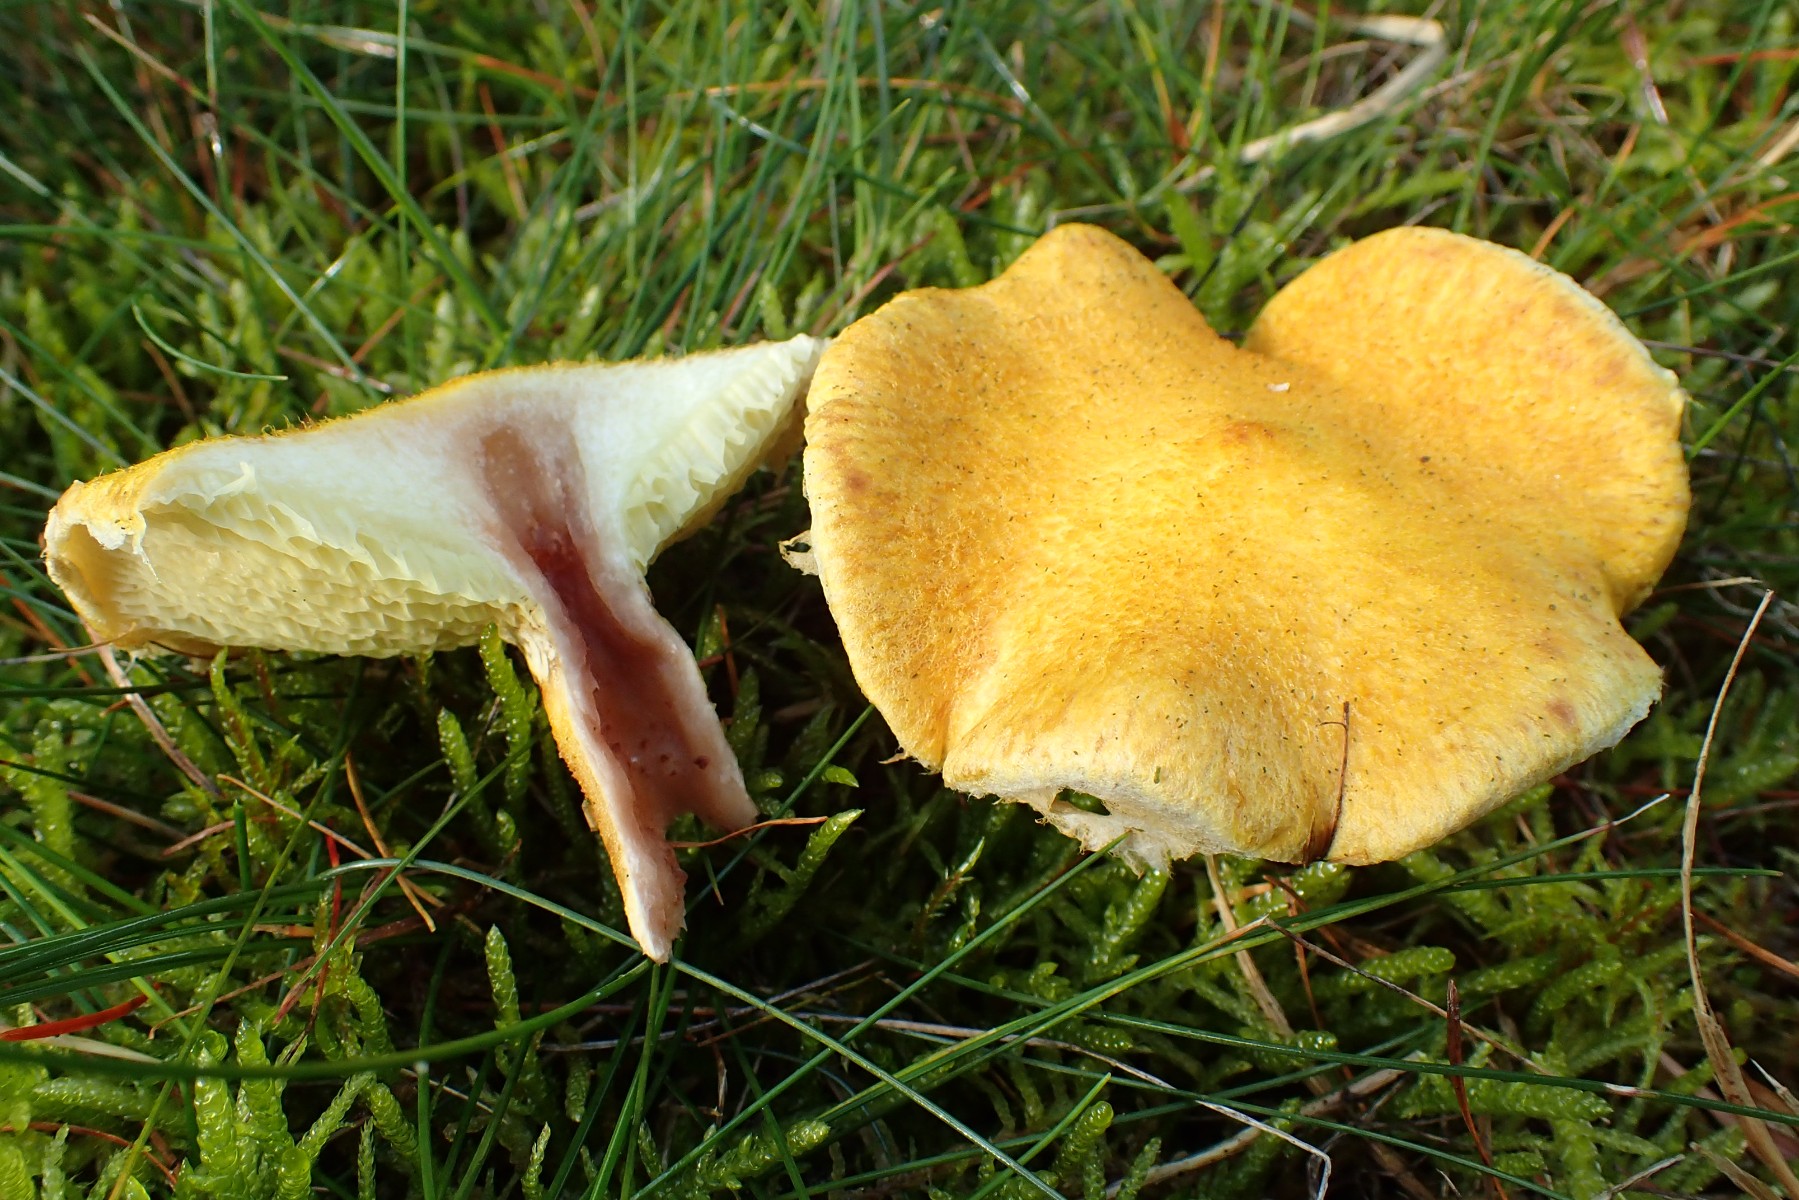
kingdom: Fungi
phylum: Basidiomycota
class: Agaricomycetes
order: Boletales
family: Suillaceae
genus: Suillus
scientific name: Suillus cavipes
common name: hulstokket slimrørhat, gul form
